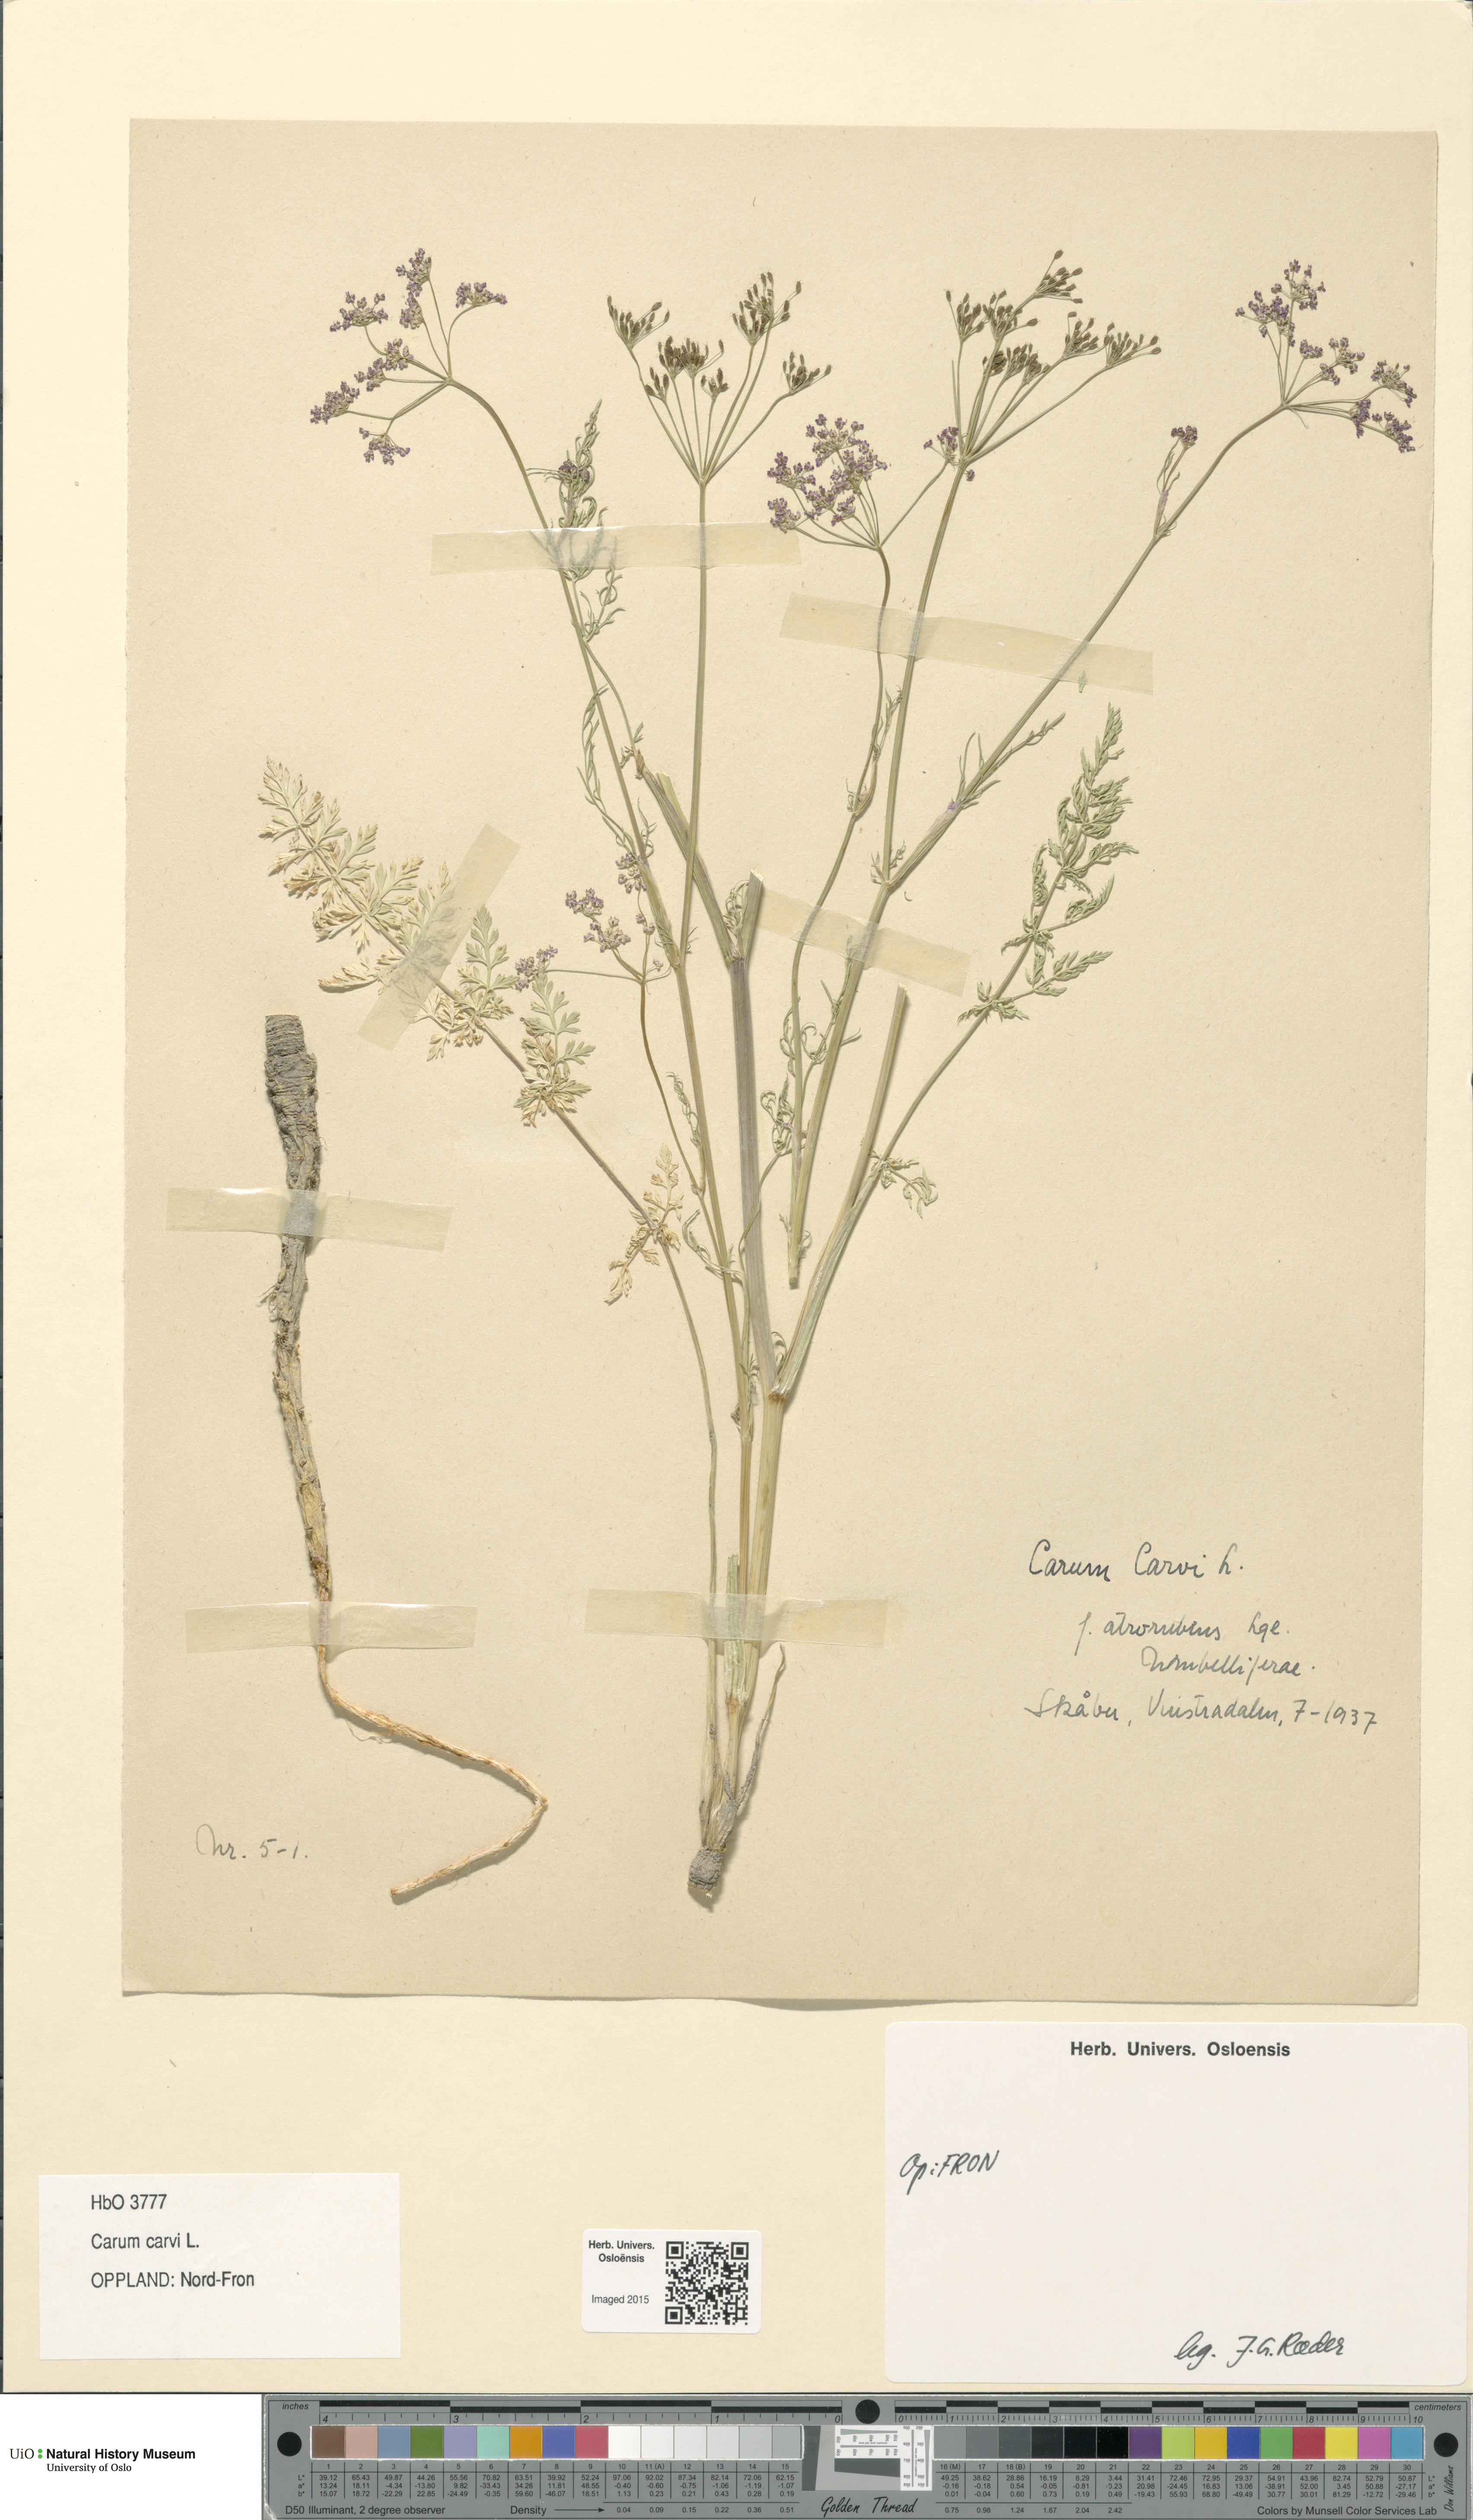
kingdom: Plantae
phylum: Tracheophyta
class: Magnoliopsida
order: Apiales
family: Apiaceae
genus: Carum
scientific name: Carum carvi
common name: Caraway
